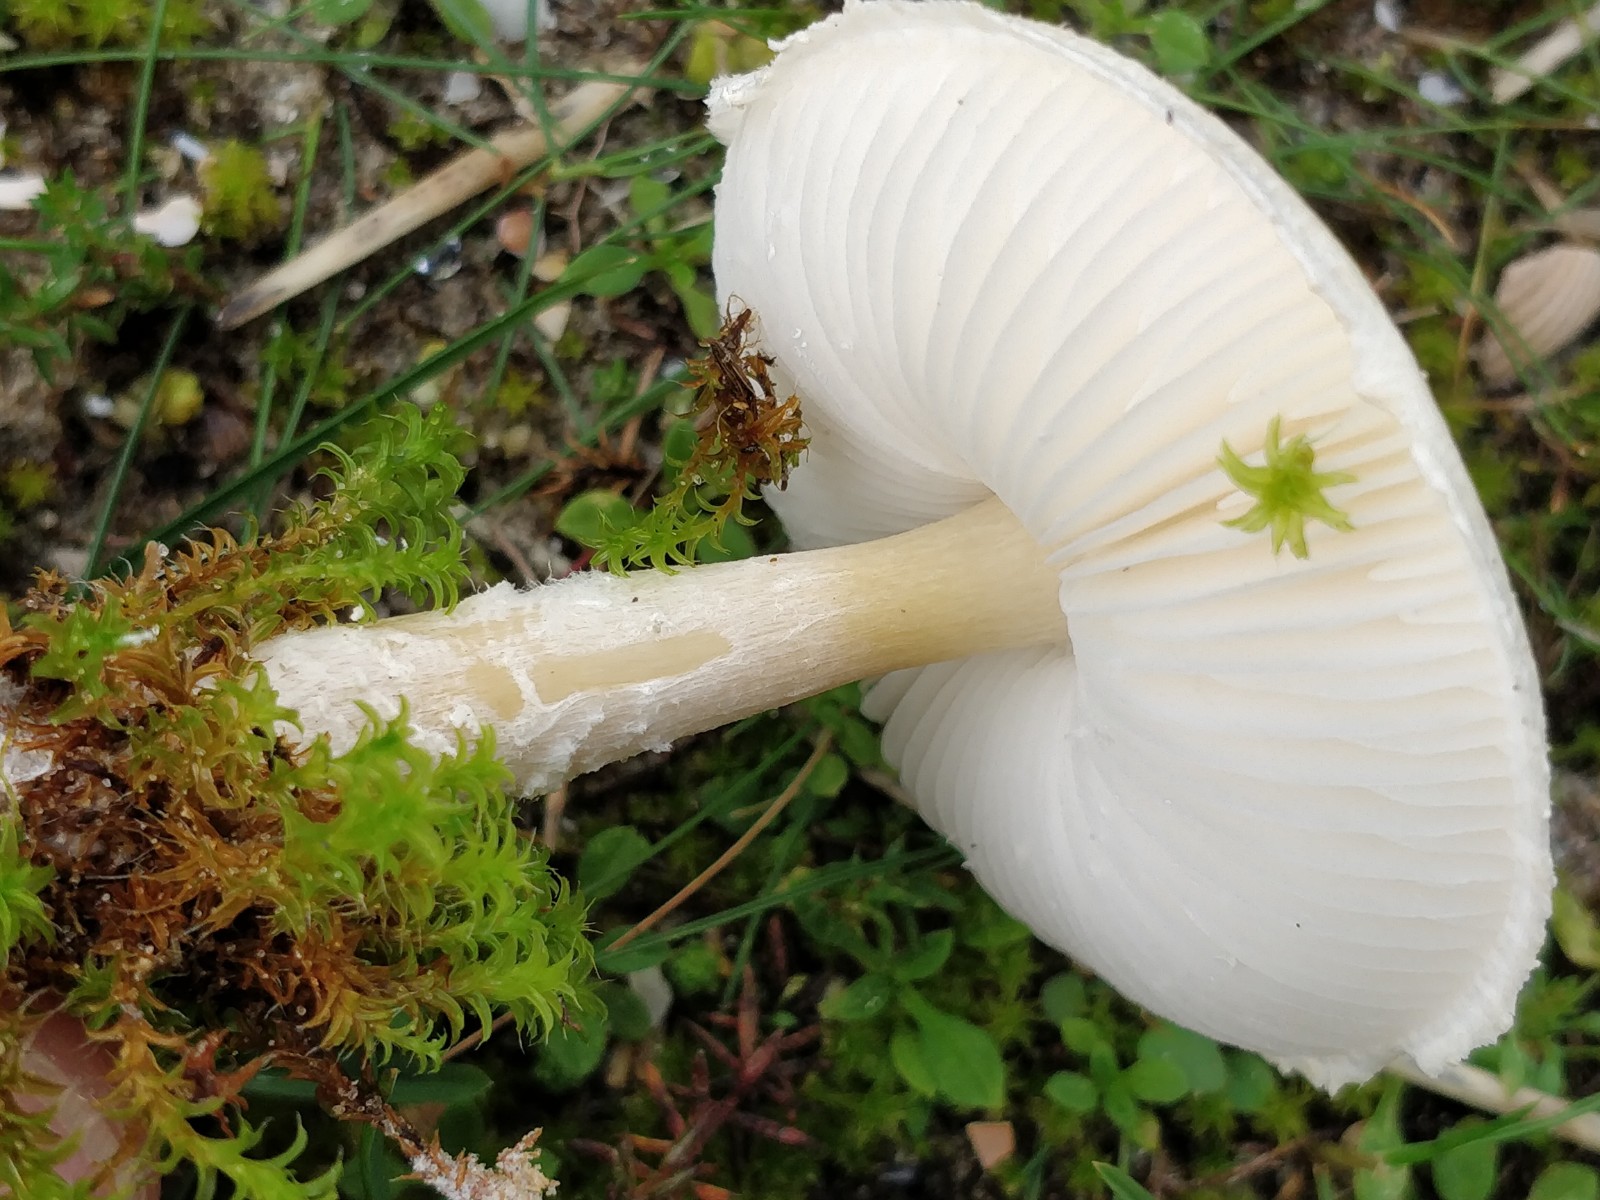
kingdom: Fungi
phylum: Basidiomycota
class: Agaricomycetes
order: Agaricales
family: Agaricaceae
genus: Lepiota
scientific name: Lepiota
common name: parasolhat
